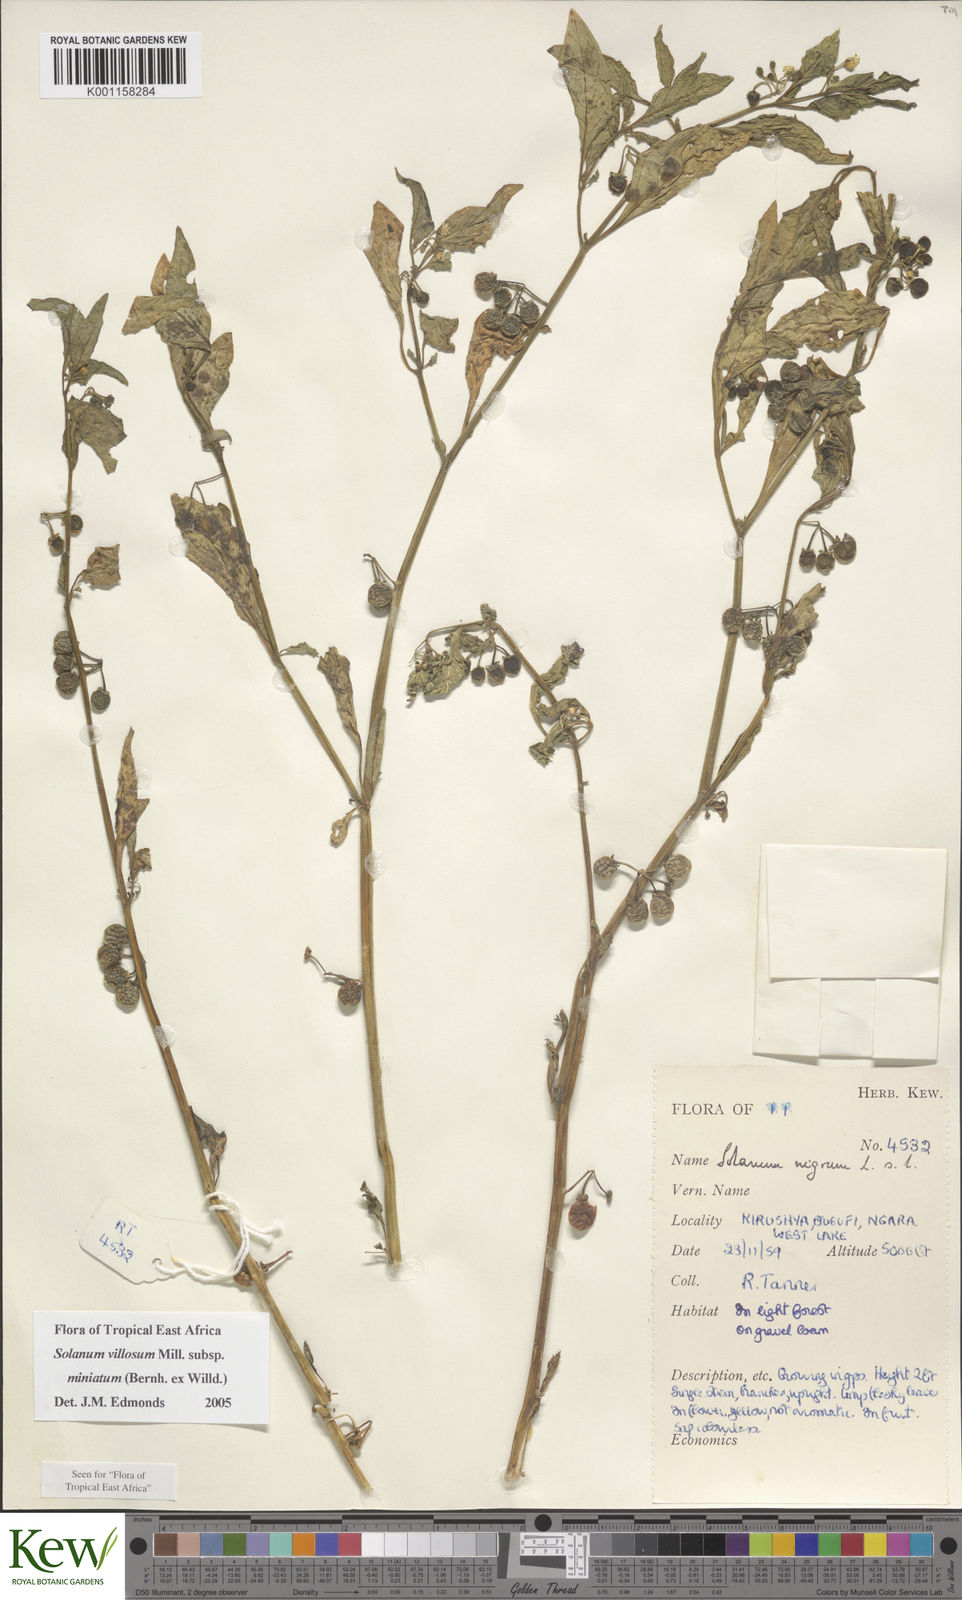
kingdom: Plantae
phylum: Tracheophyta
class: Magnoliopsida
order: Solanales
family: Solanaceae
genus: Solanum
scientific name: Solanum villosum
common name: Red nightshade
